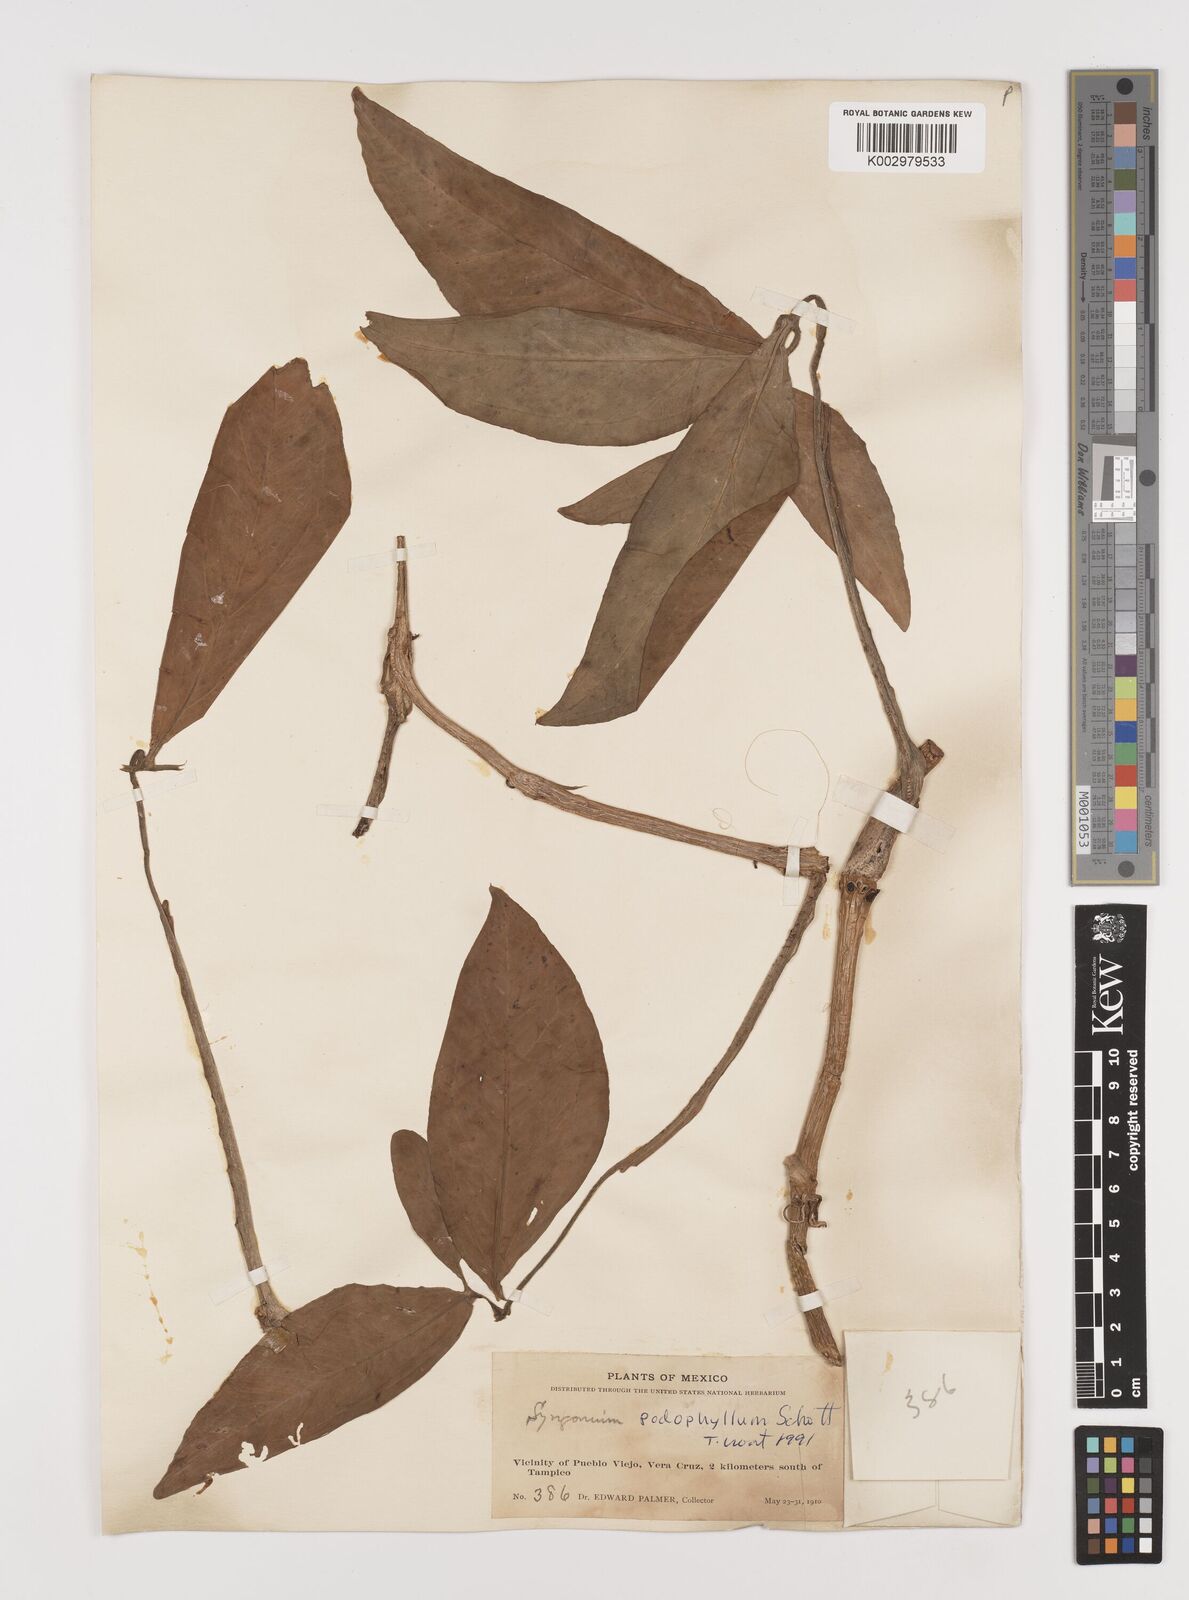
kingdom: Plantae
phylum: Tracheophyta
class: Liliopsida
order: Alismatales
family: Araceae
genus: Syngonium
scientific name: Syngonium podophyllum
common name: American evergreen
